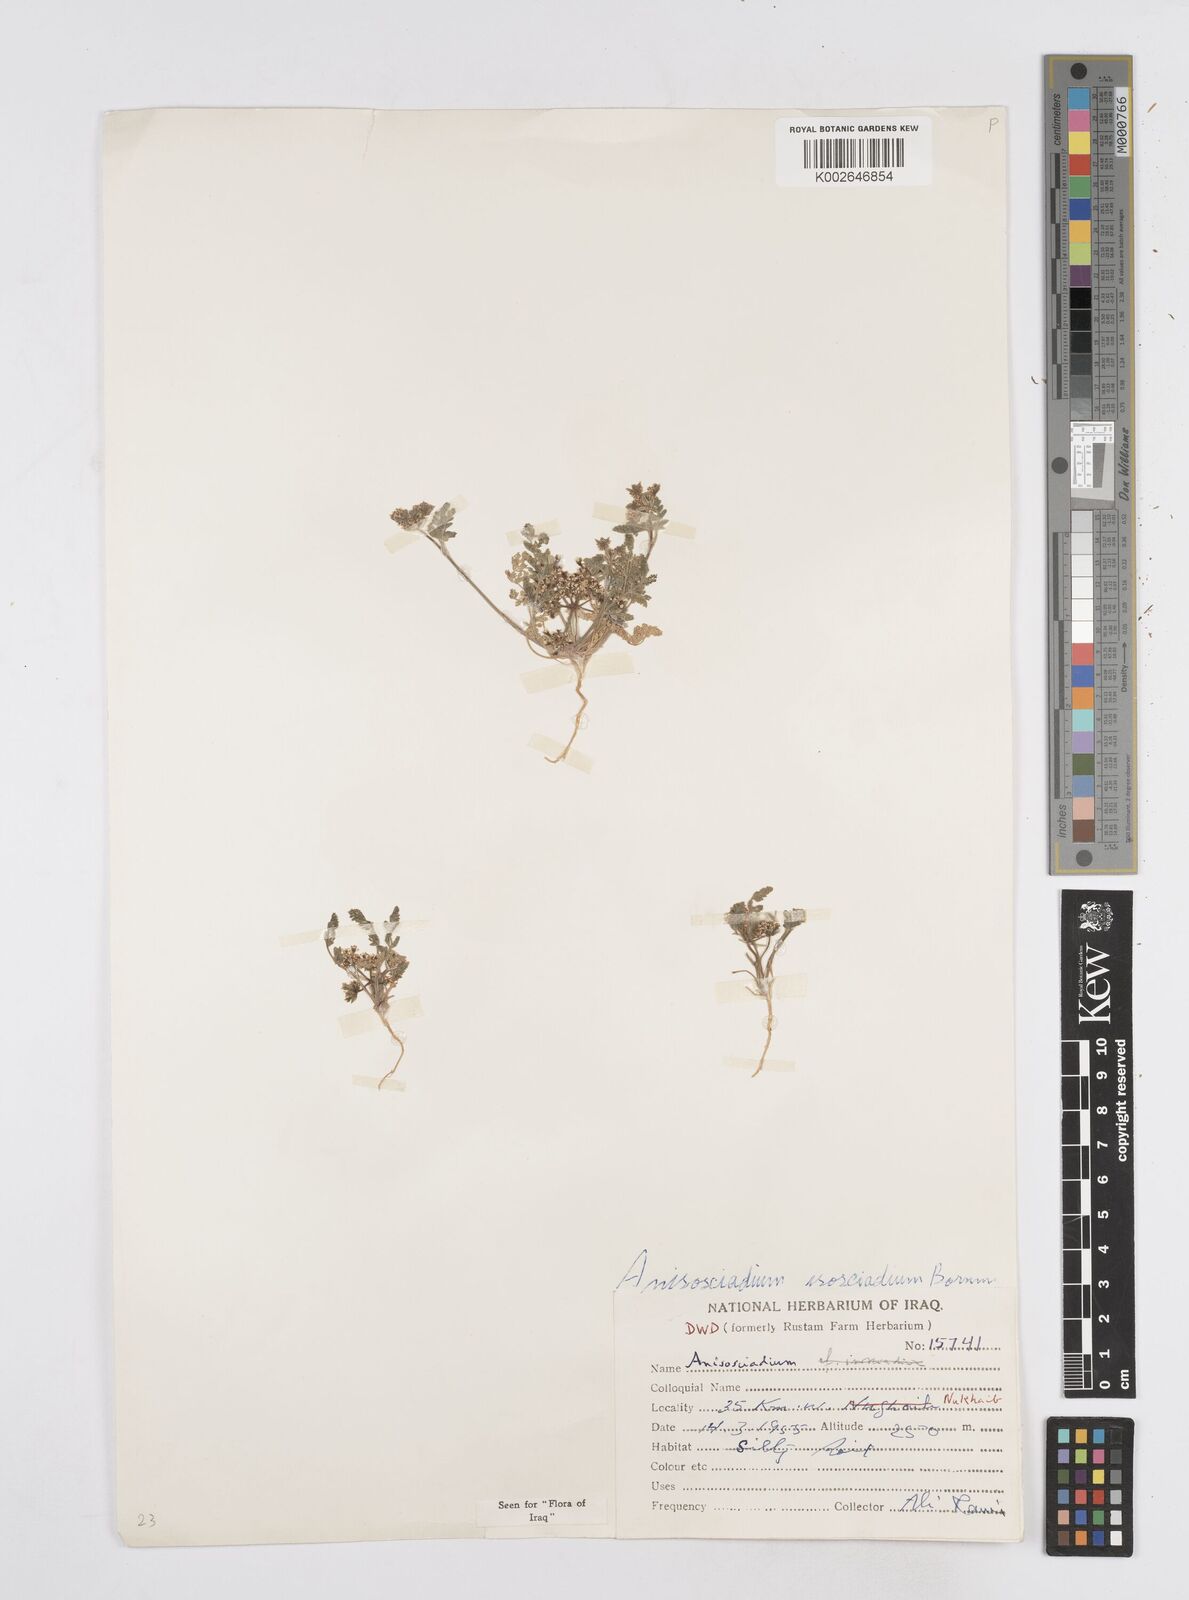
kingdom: Plantae
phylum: Tracheophyta
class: Magnoliopsida
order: Apiales
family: Apiaceae
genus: Anisosciadium
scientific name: Anisosciadium isosciadium
